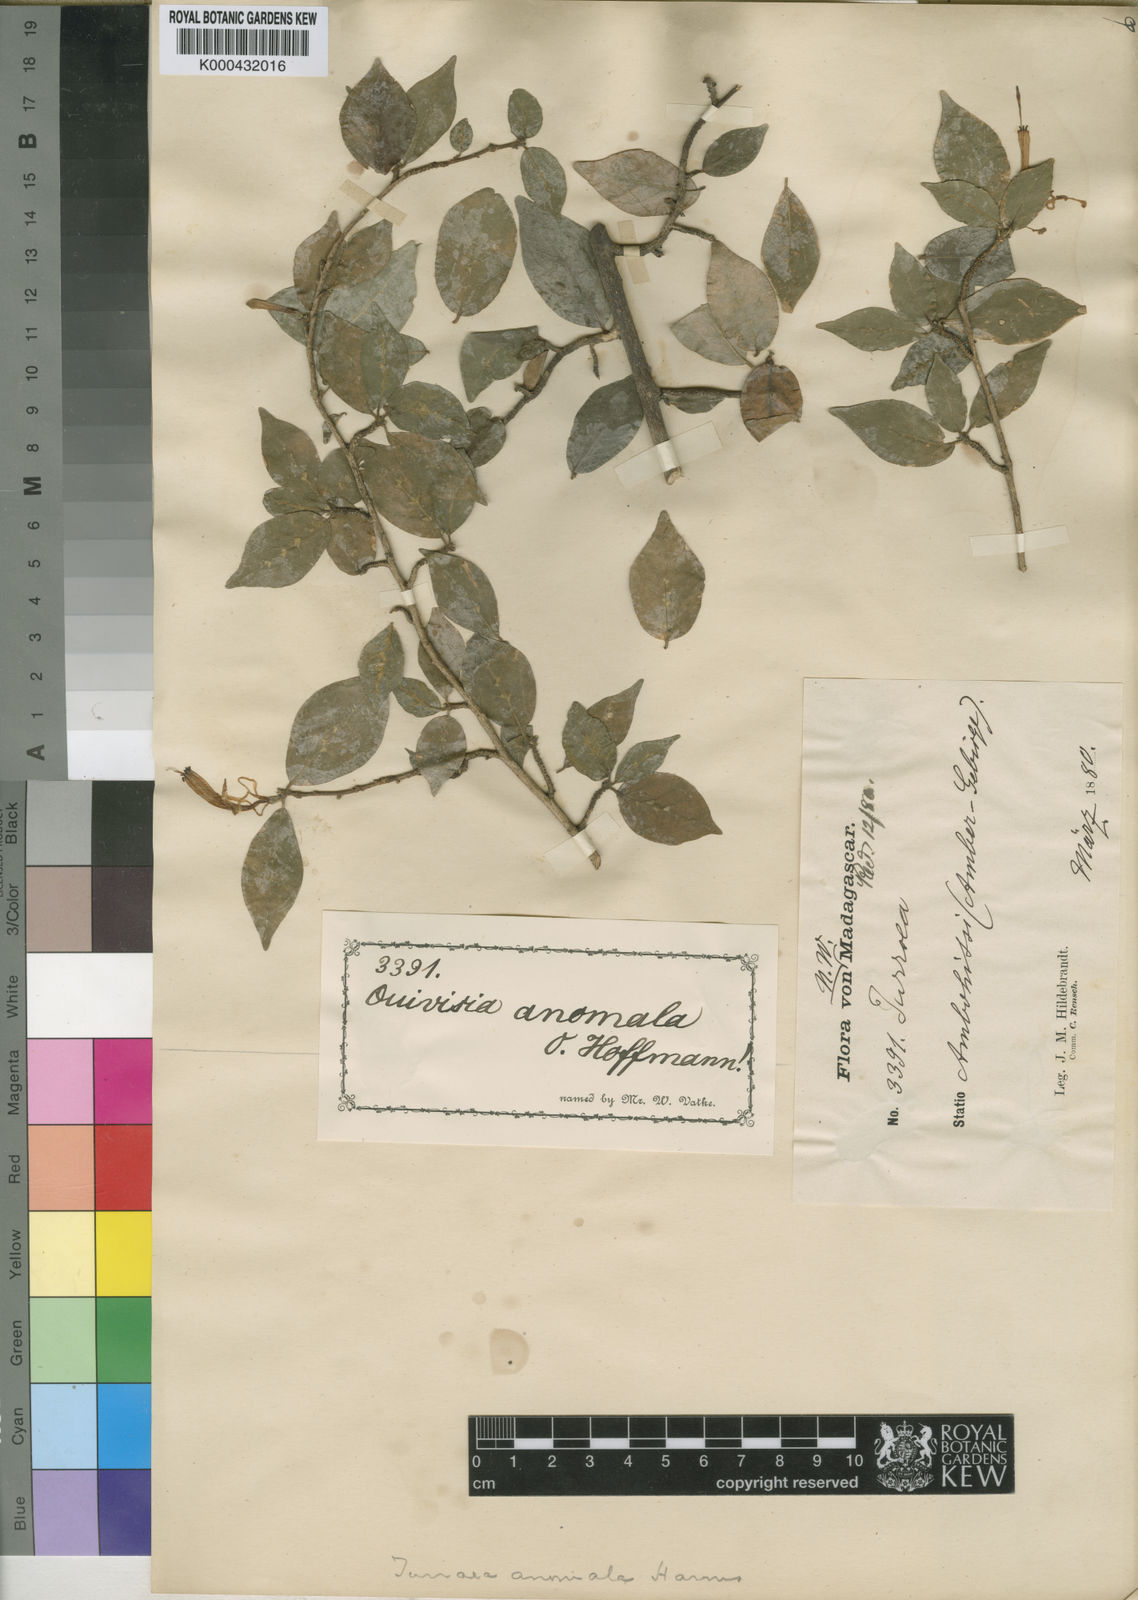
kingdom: Plantae
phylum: Tracheophyta
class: Magnoliopsida
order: Sapindales
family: Meliaceae
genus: Turraea
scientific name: Turraea anomala
